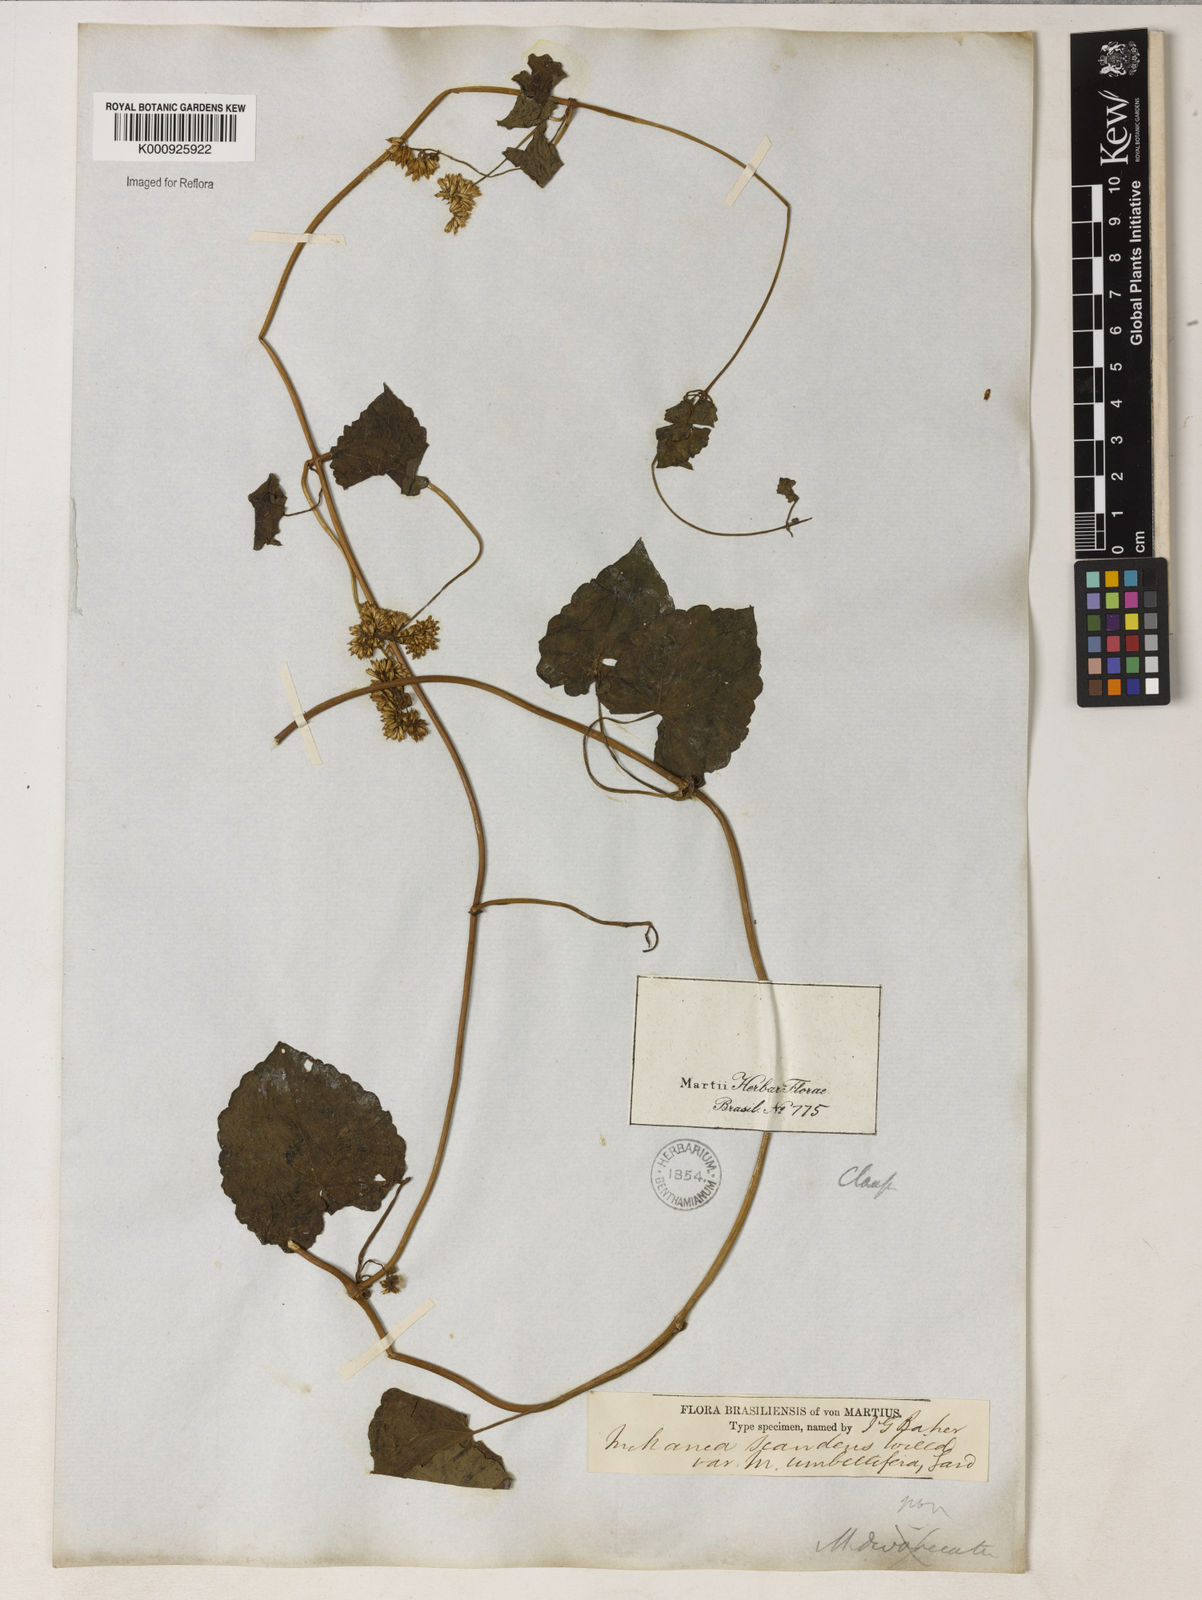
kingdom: Plantae
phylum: Tracheophyta
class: Magnoliopsida
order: Asterales
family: Asteraceae
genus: Mikania
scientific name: Mikania micrantha
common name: Mile-a-minute
